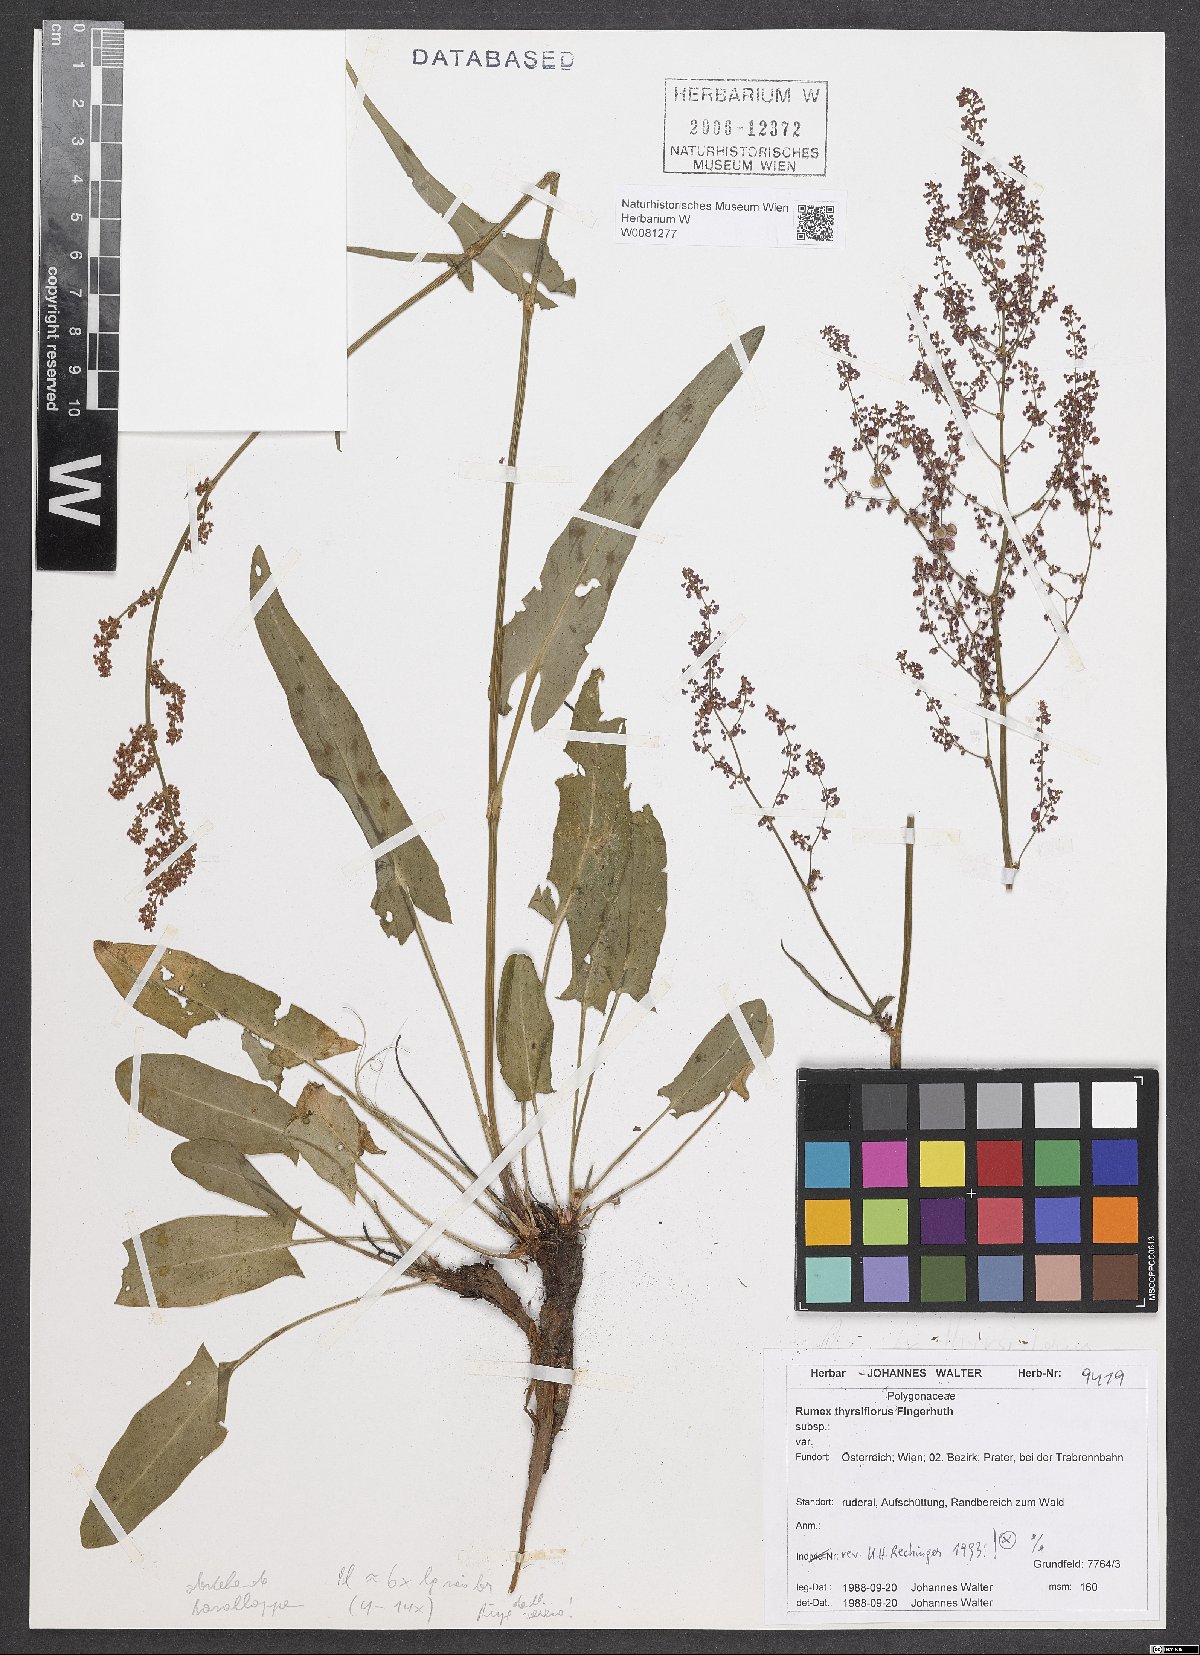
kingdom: Plantae
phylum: Tracheophyta
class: Magnoliopsida
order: Caryophyllales
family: Polygonaceae
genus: Rumex
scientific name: Rumex thyrsiflorus
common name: Garden sorrel
